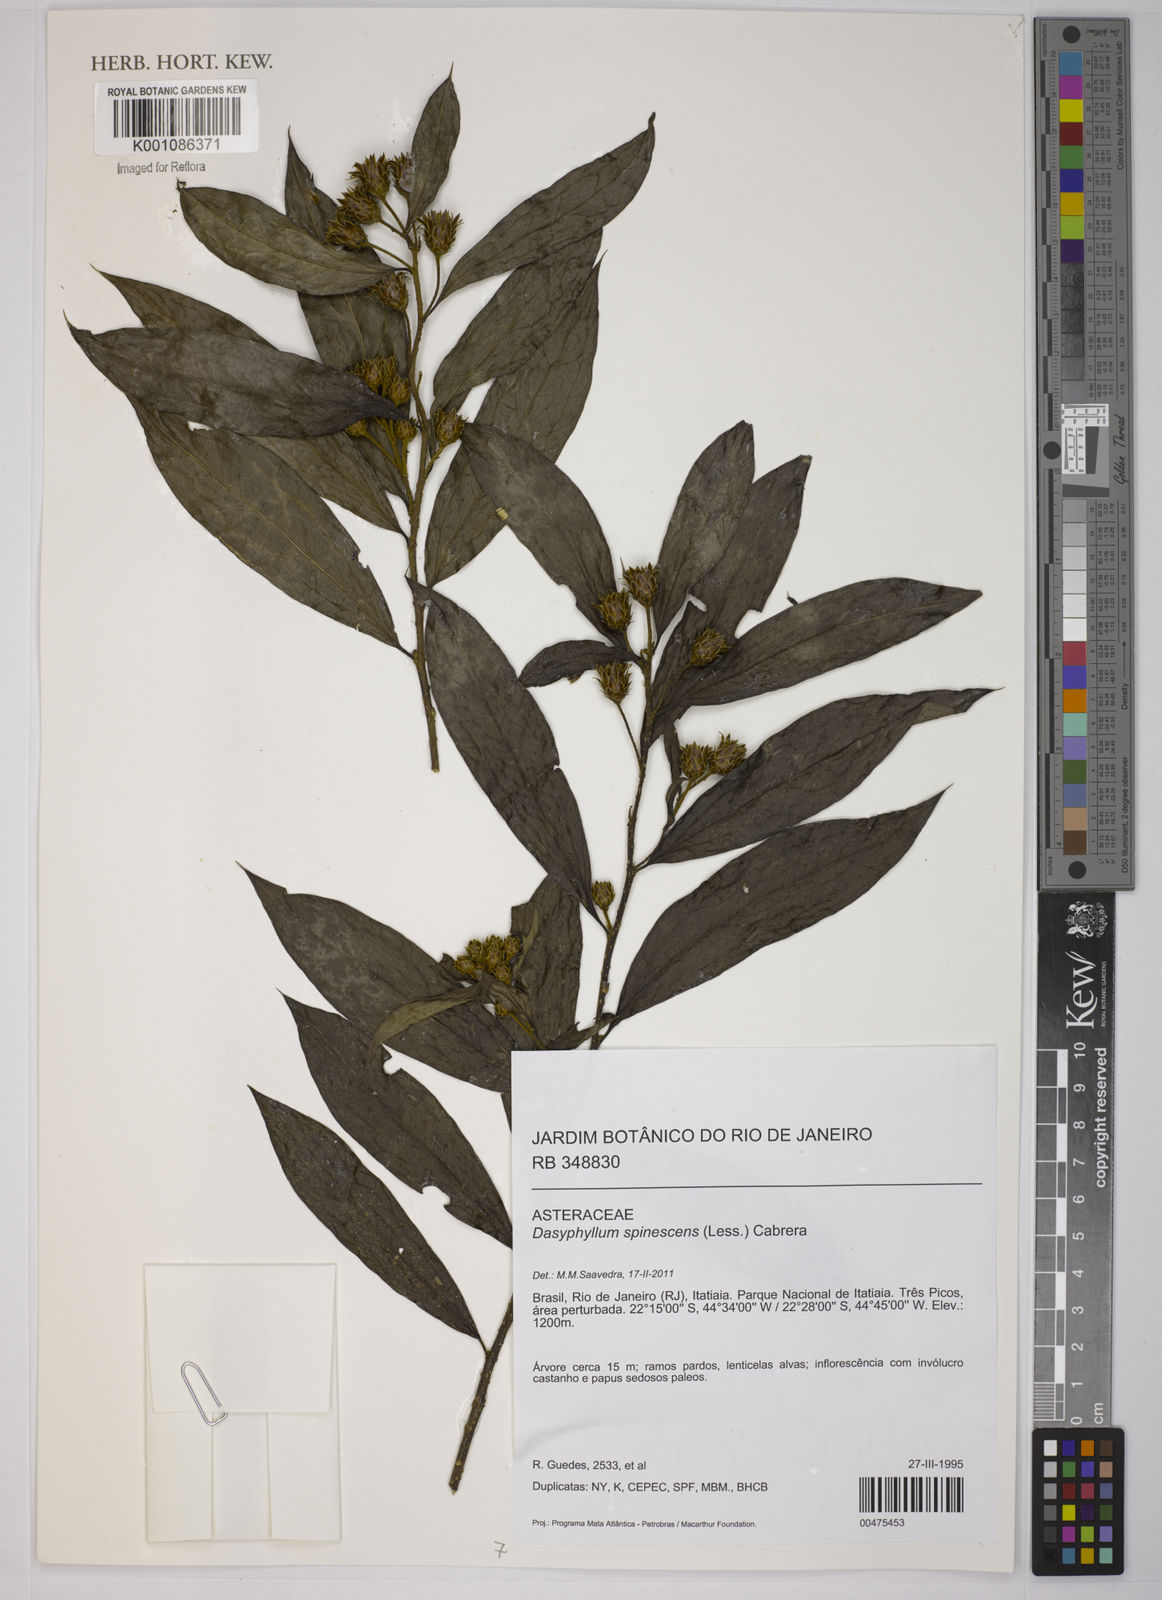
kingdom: Plantae
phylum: Tracheophyta
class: Magnoliopsida
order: Asterales
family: Asteraceae
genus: Dasyphyllum
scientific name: Dasyphyllum spinescens
